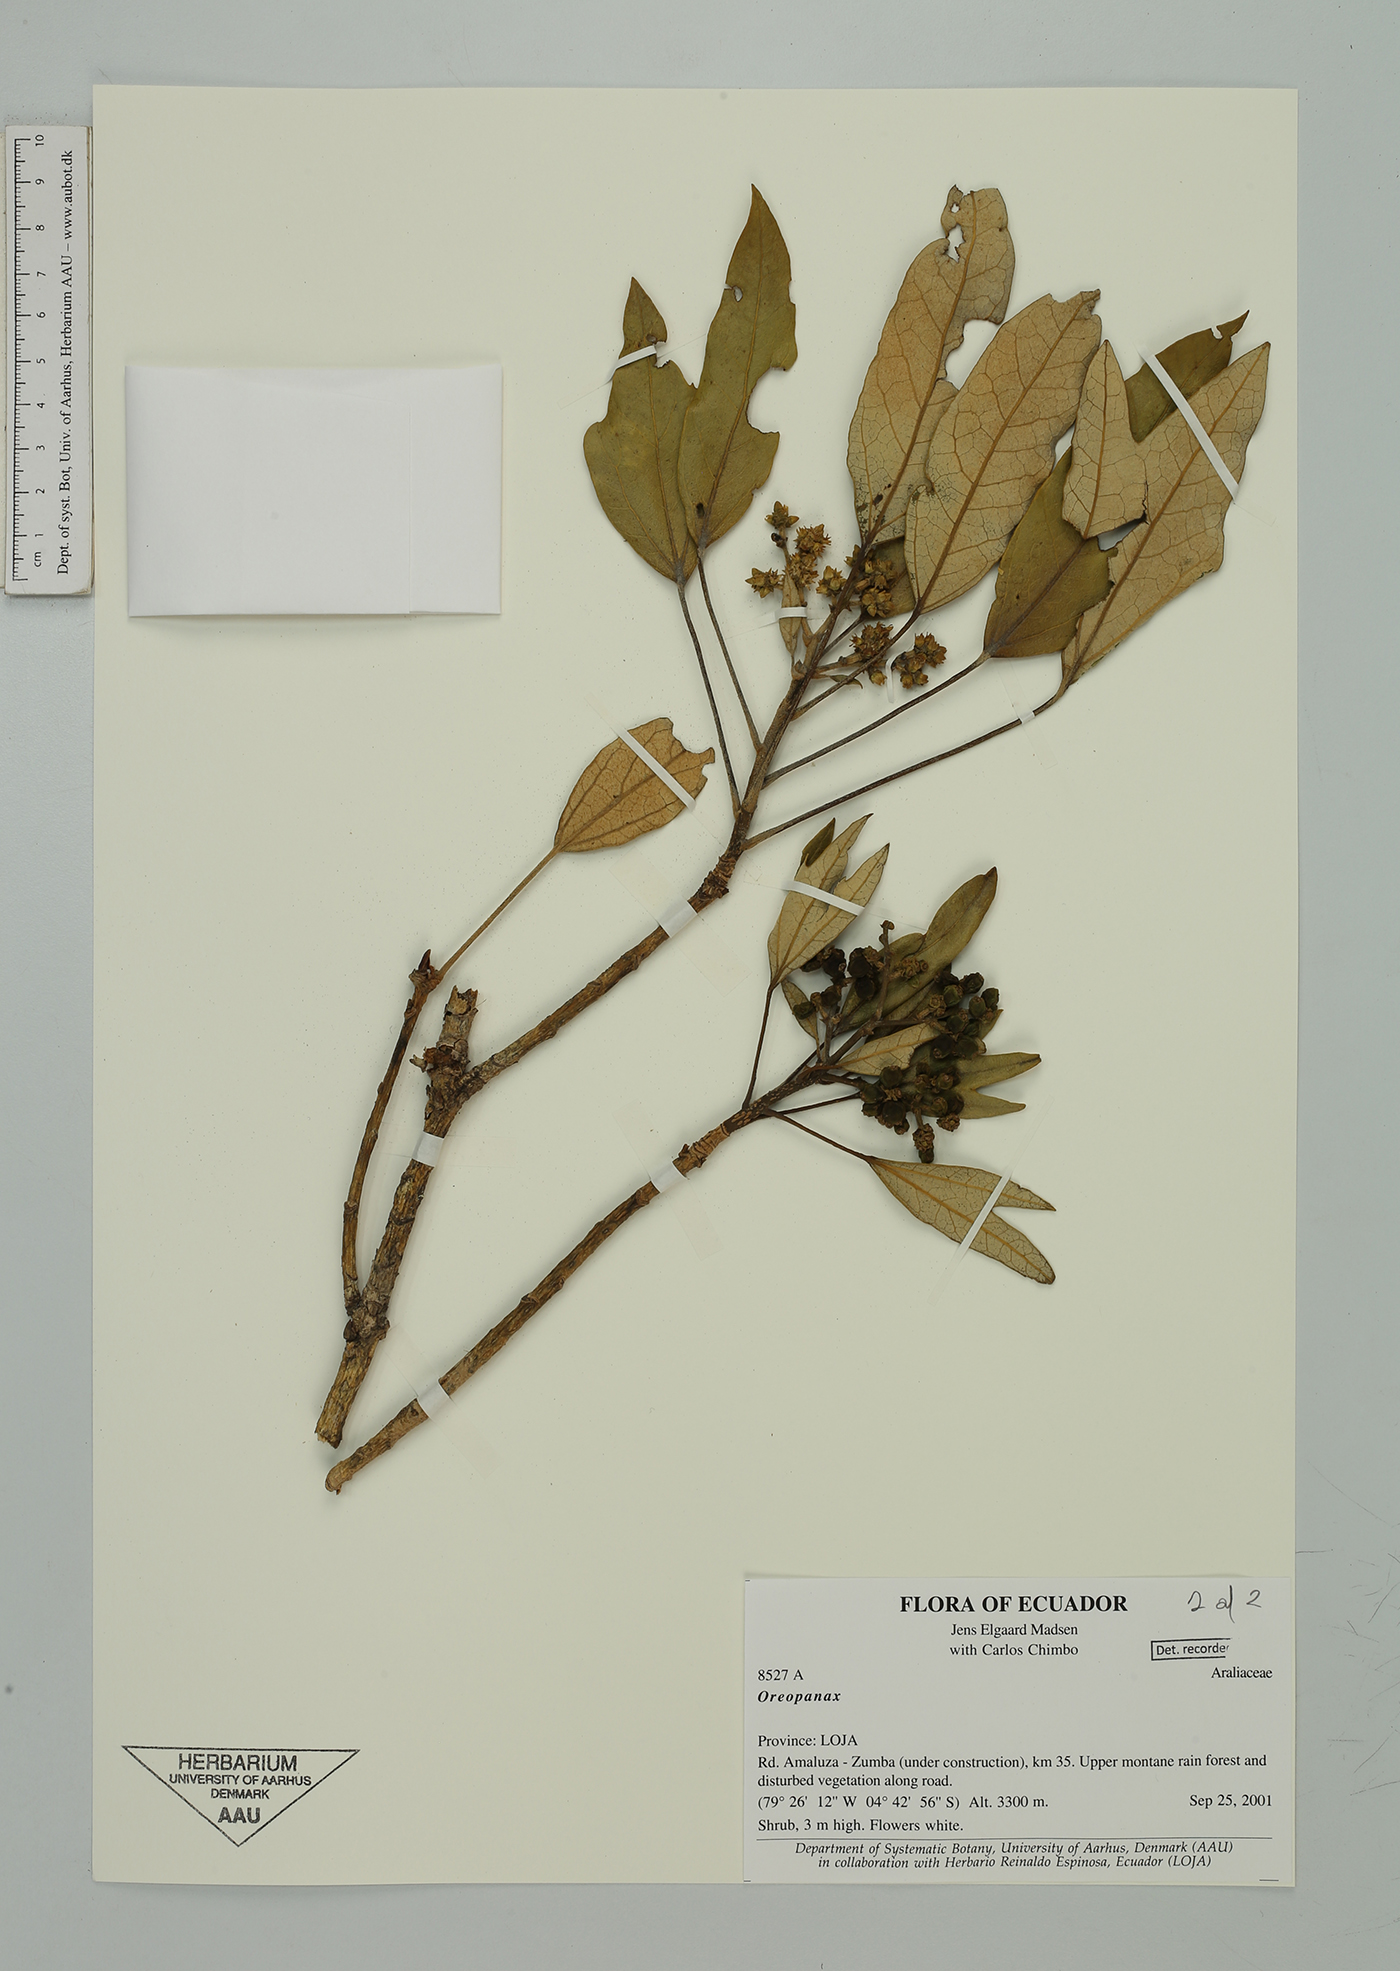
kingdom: Plantae
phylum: Tracheophyta
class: Magnoliopsida
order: Apiales
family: Araliaceae
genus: Oreopanax
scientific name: Oreopanax
